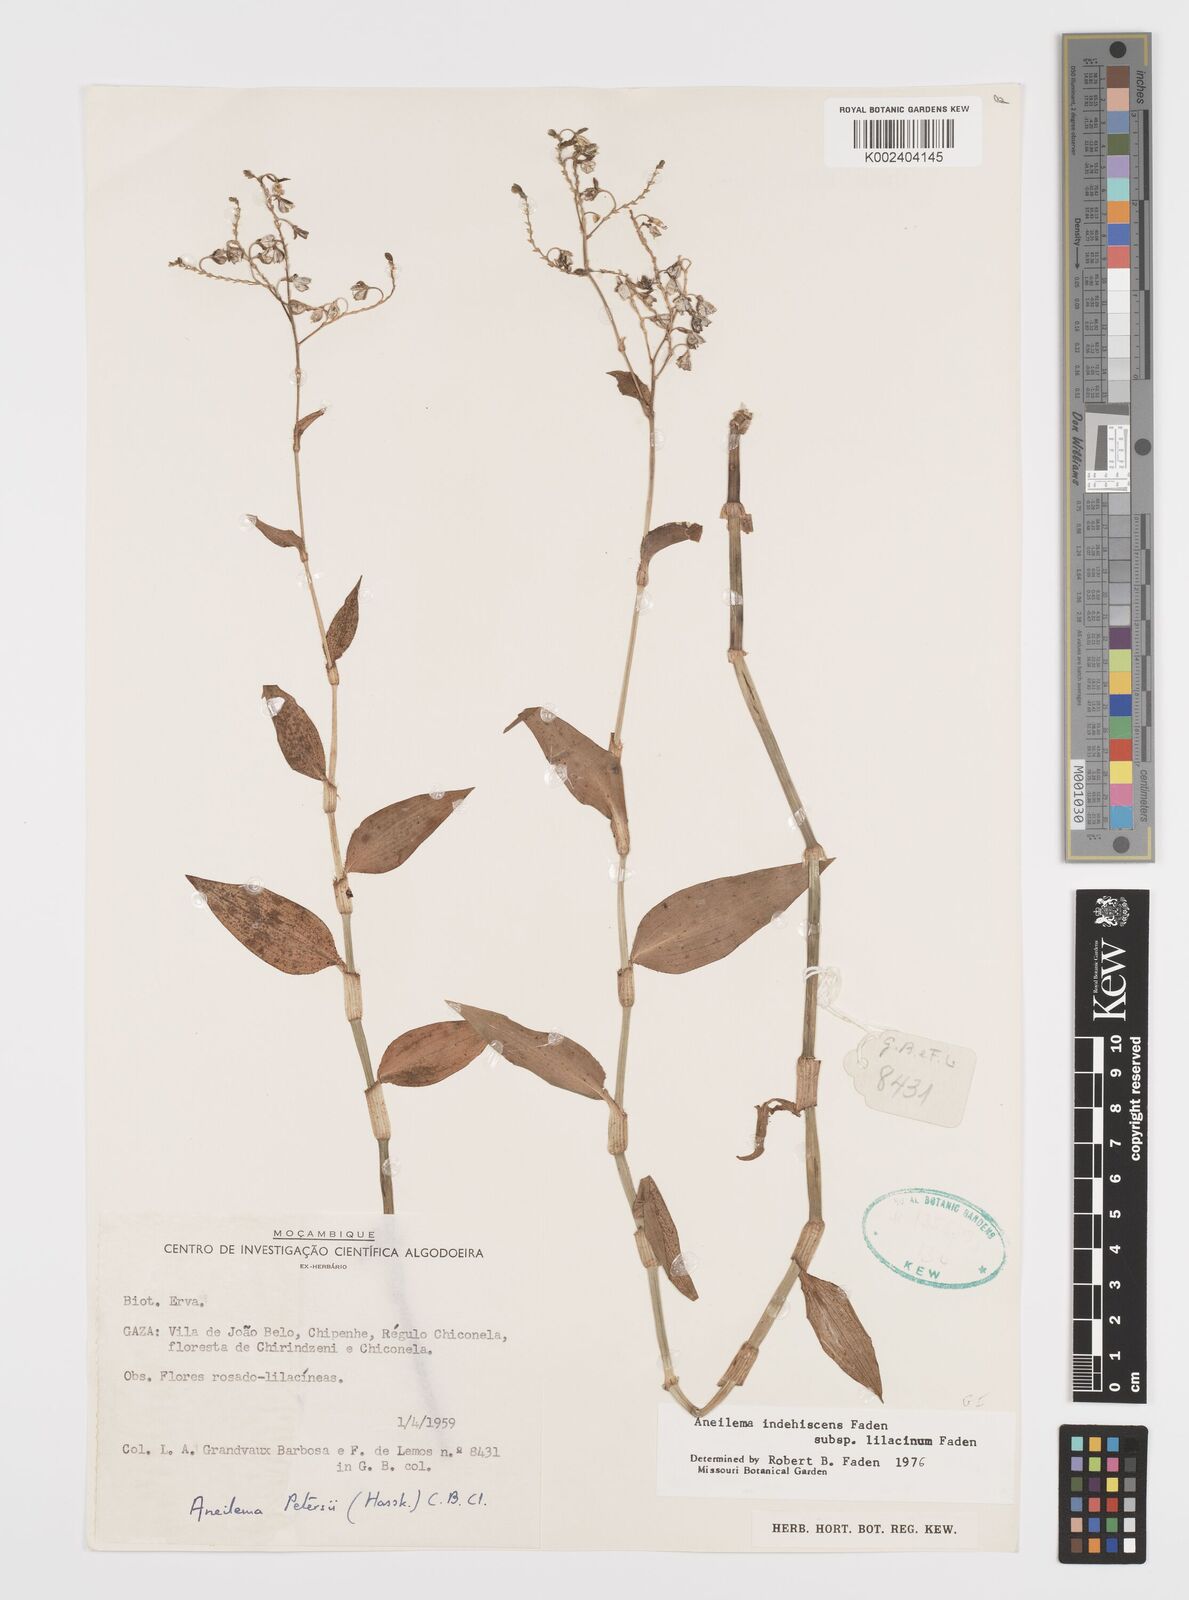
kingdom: Plantae
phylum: Tracheophyta
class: Liliopsida
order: Commelinales
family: Commelinaceae
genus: Aneilema
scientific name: Aneilema indehiscens
